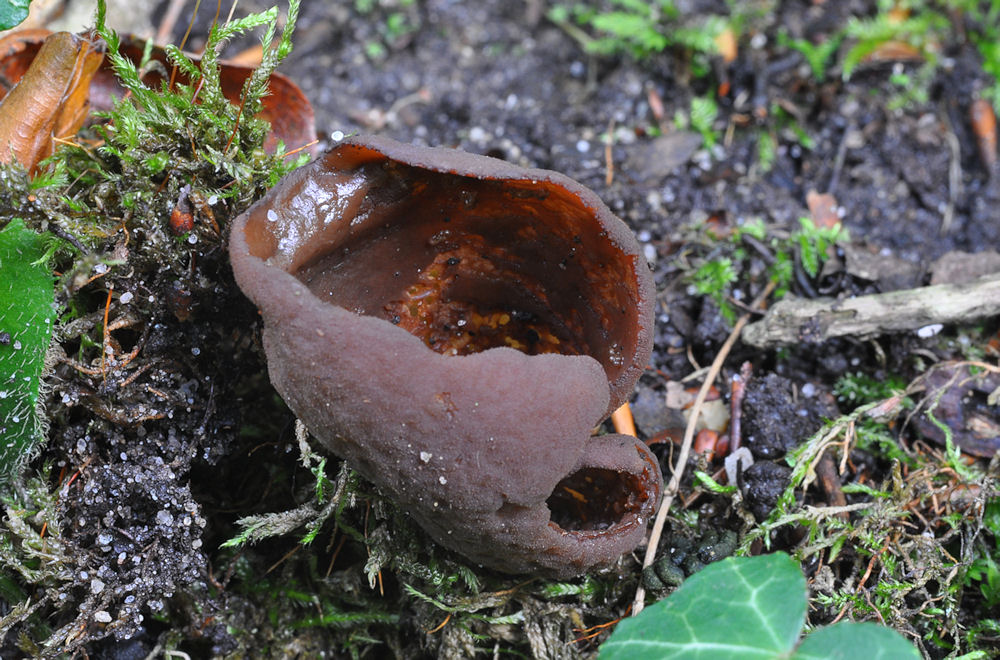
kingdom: Fungi
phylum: Ascomycota
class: Pezizomycetes
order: Pezizales
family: Otideaceae
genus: Otidea
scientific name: Otidea bufonia
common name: brun ørebæger
